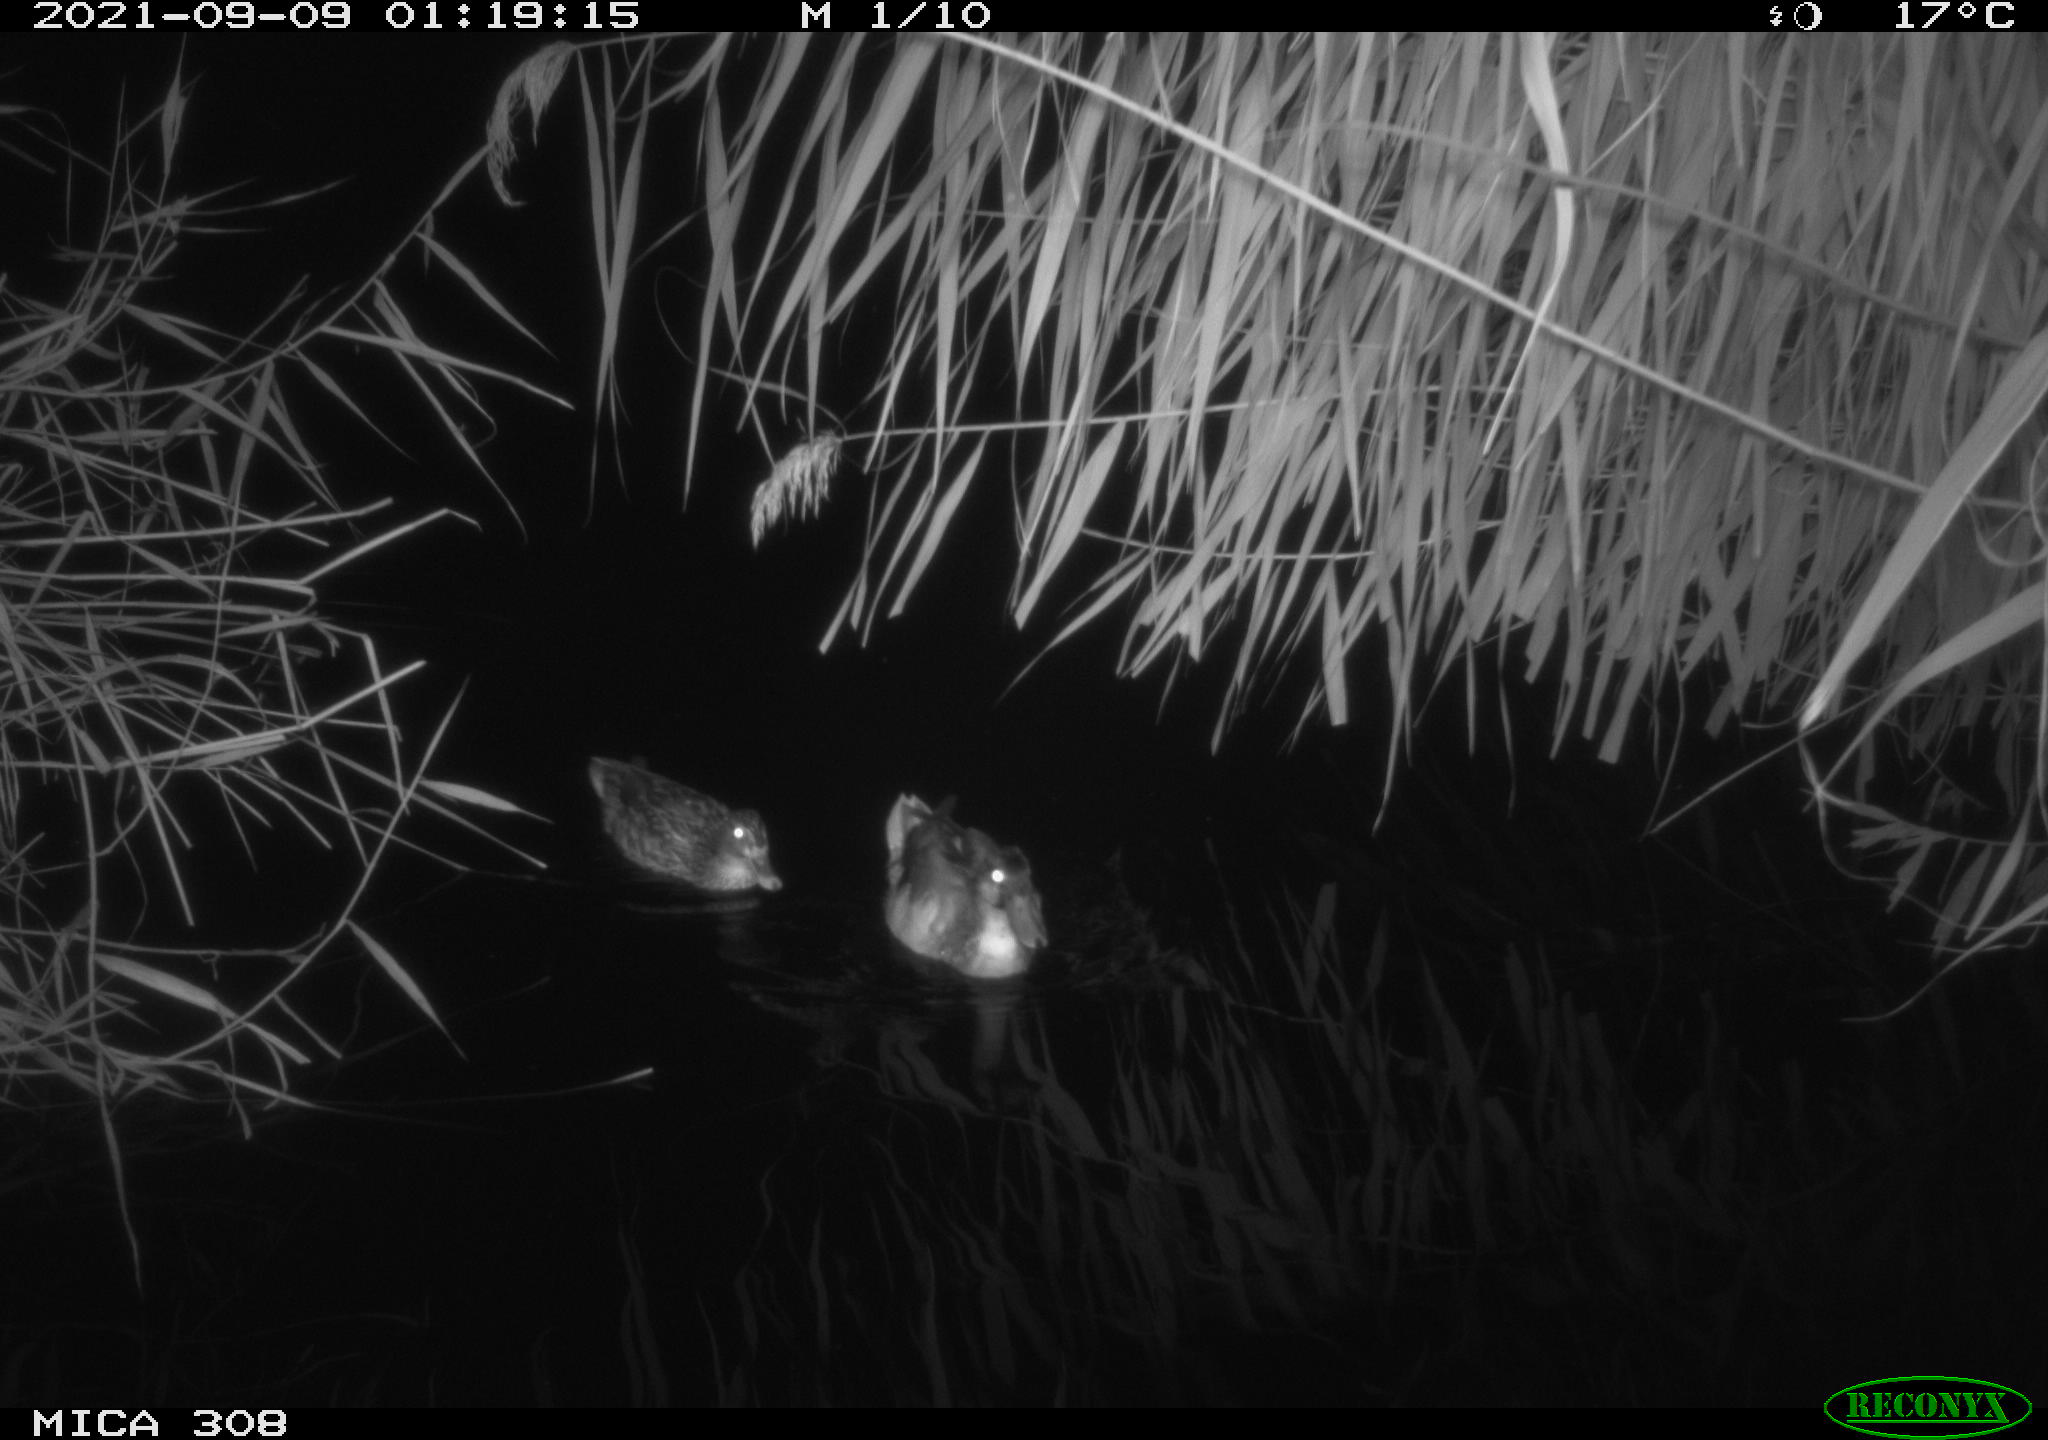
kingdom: Animalia
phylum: Chordata
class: Aves
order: Anseriformes
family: Anatidae
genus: Anas
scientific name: Anas platyrhynchos
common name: Mallard
